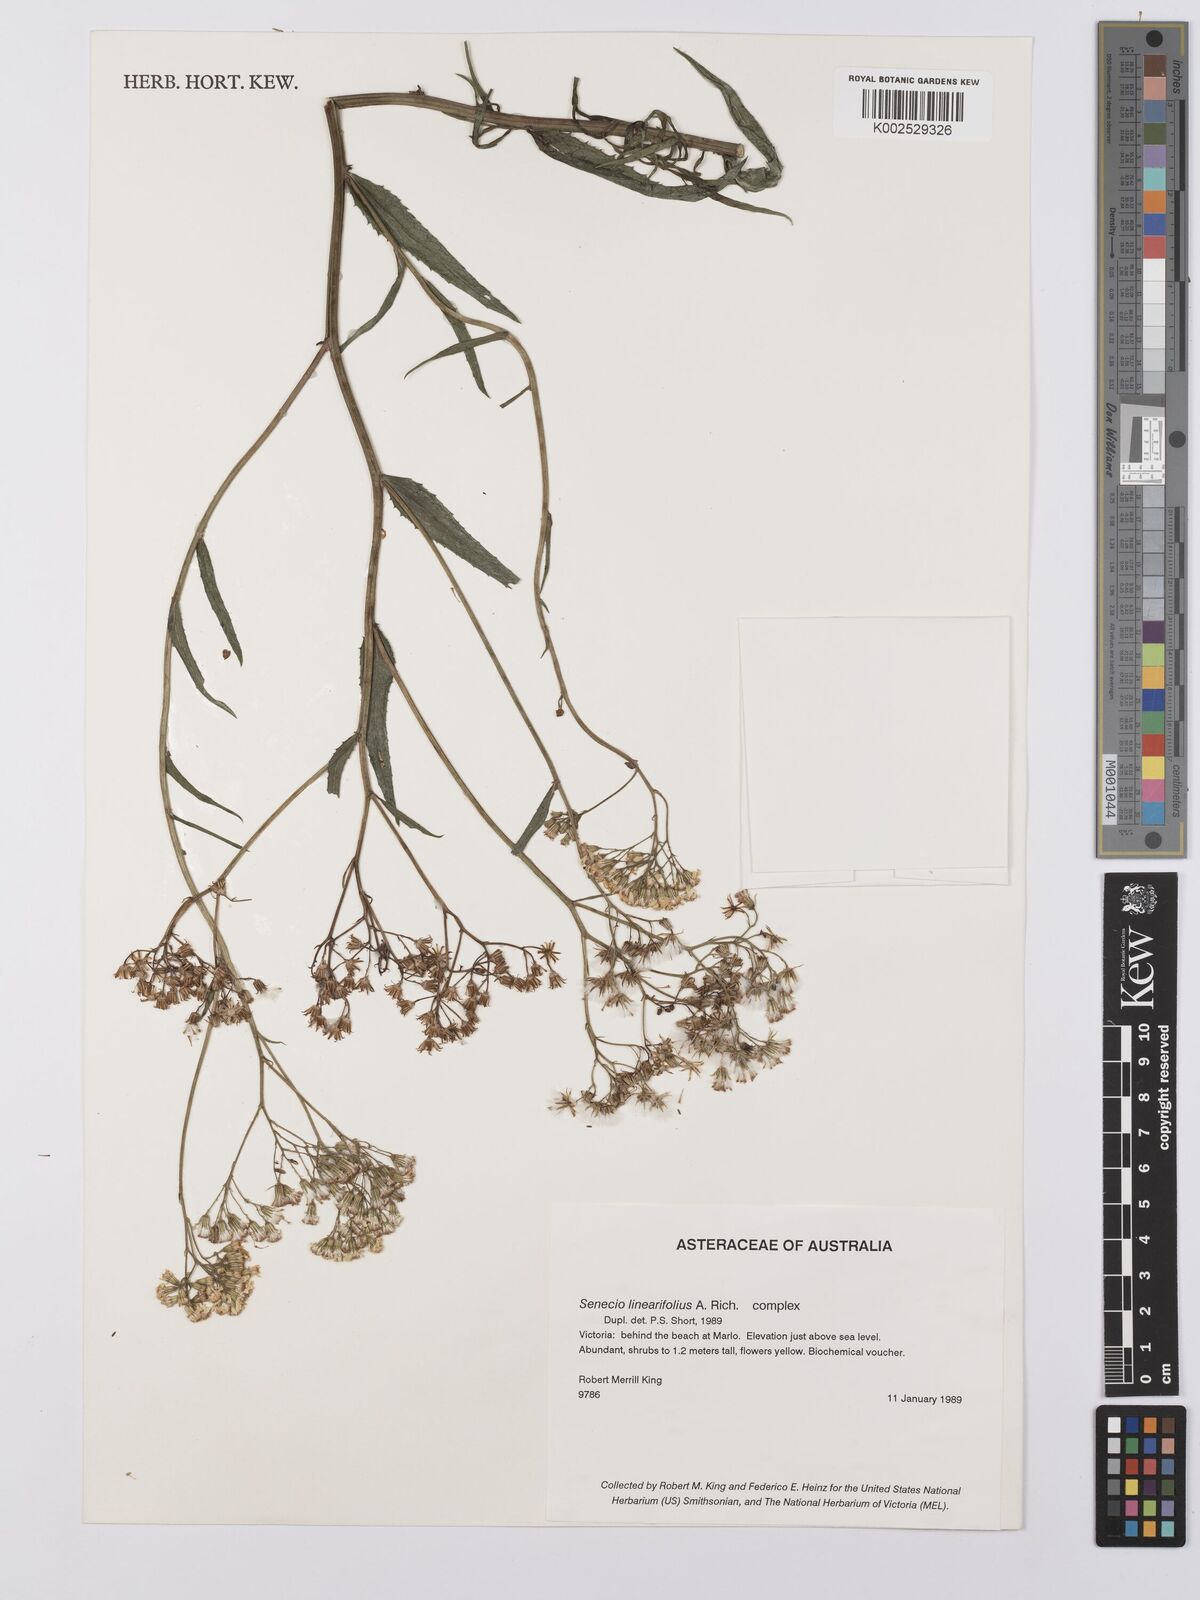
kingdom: Plantae
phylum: Tracheophyta
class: Magnoliopsida
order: Asterales
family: Asteraceae
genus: Senecio
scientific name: Senecio linearifolius
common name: Fireweed groundsel
